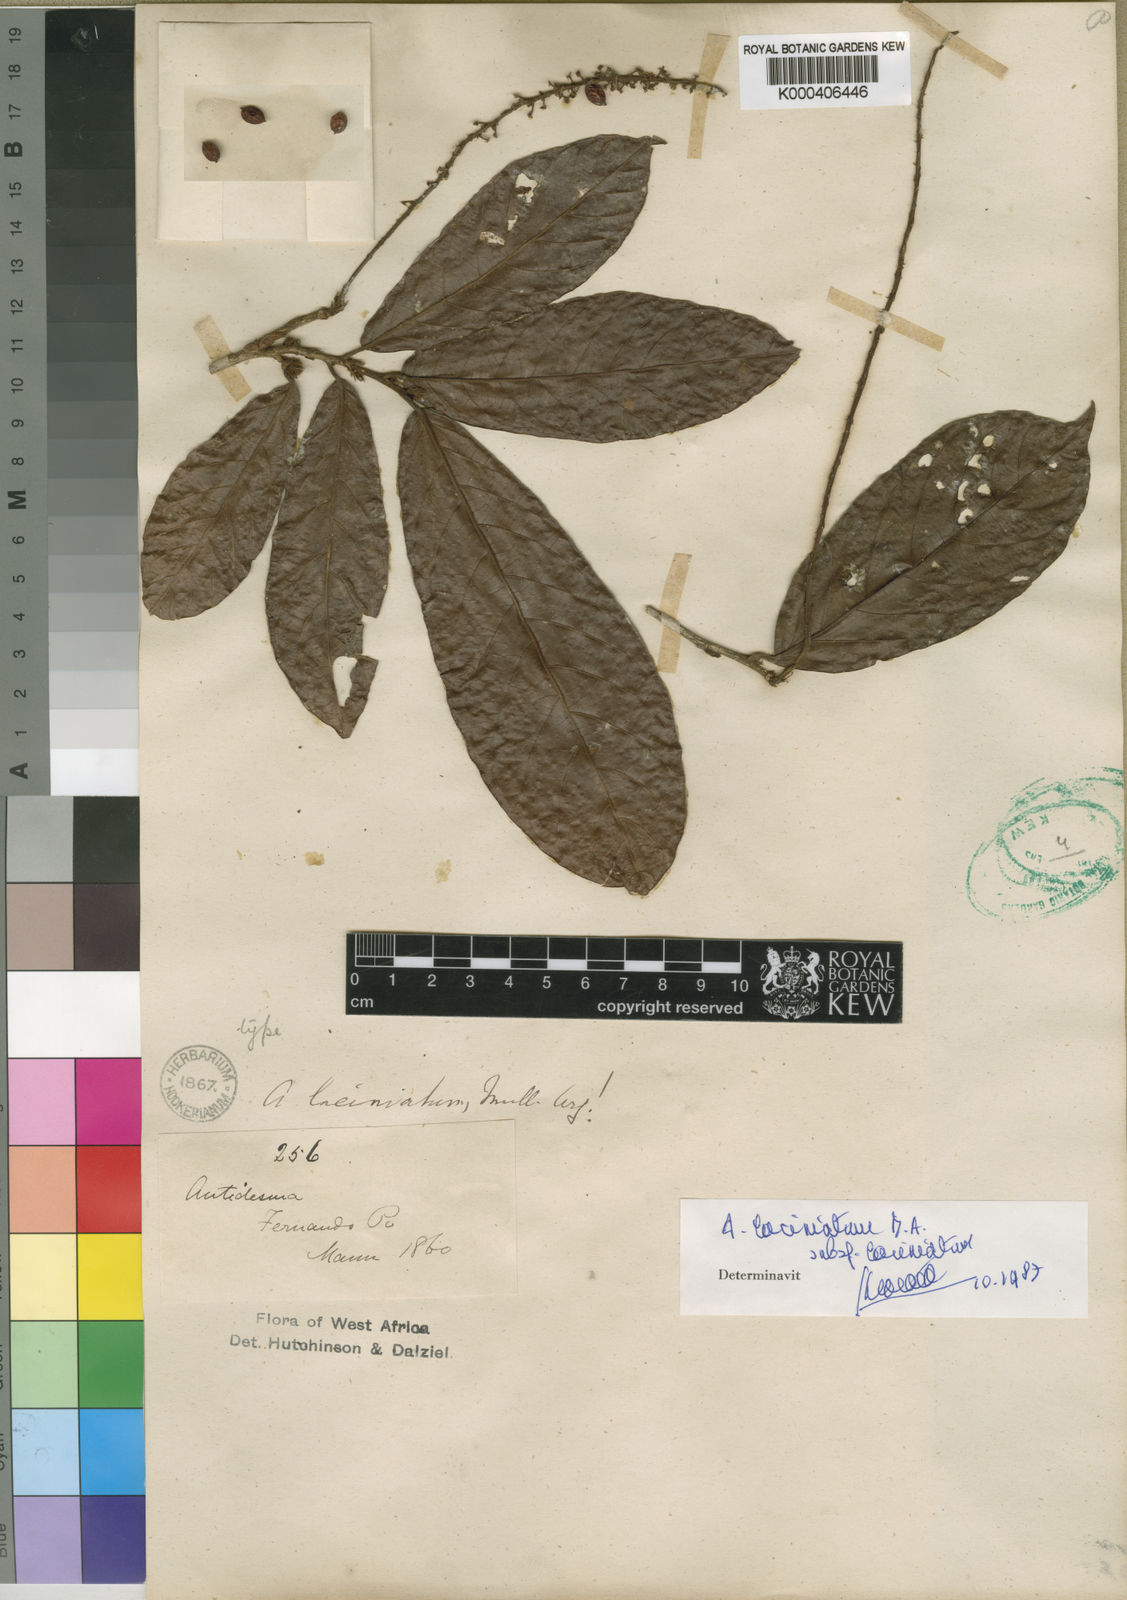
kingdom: Plantae
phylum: Tracheophyta
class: Magnoliopsida
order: Malpighiales
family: Phyllanthaceae
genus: Antidesma
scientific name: Antidesma
